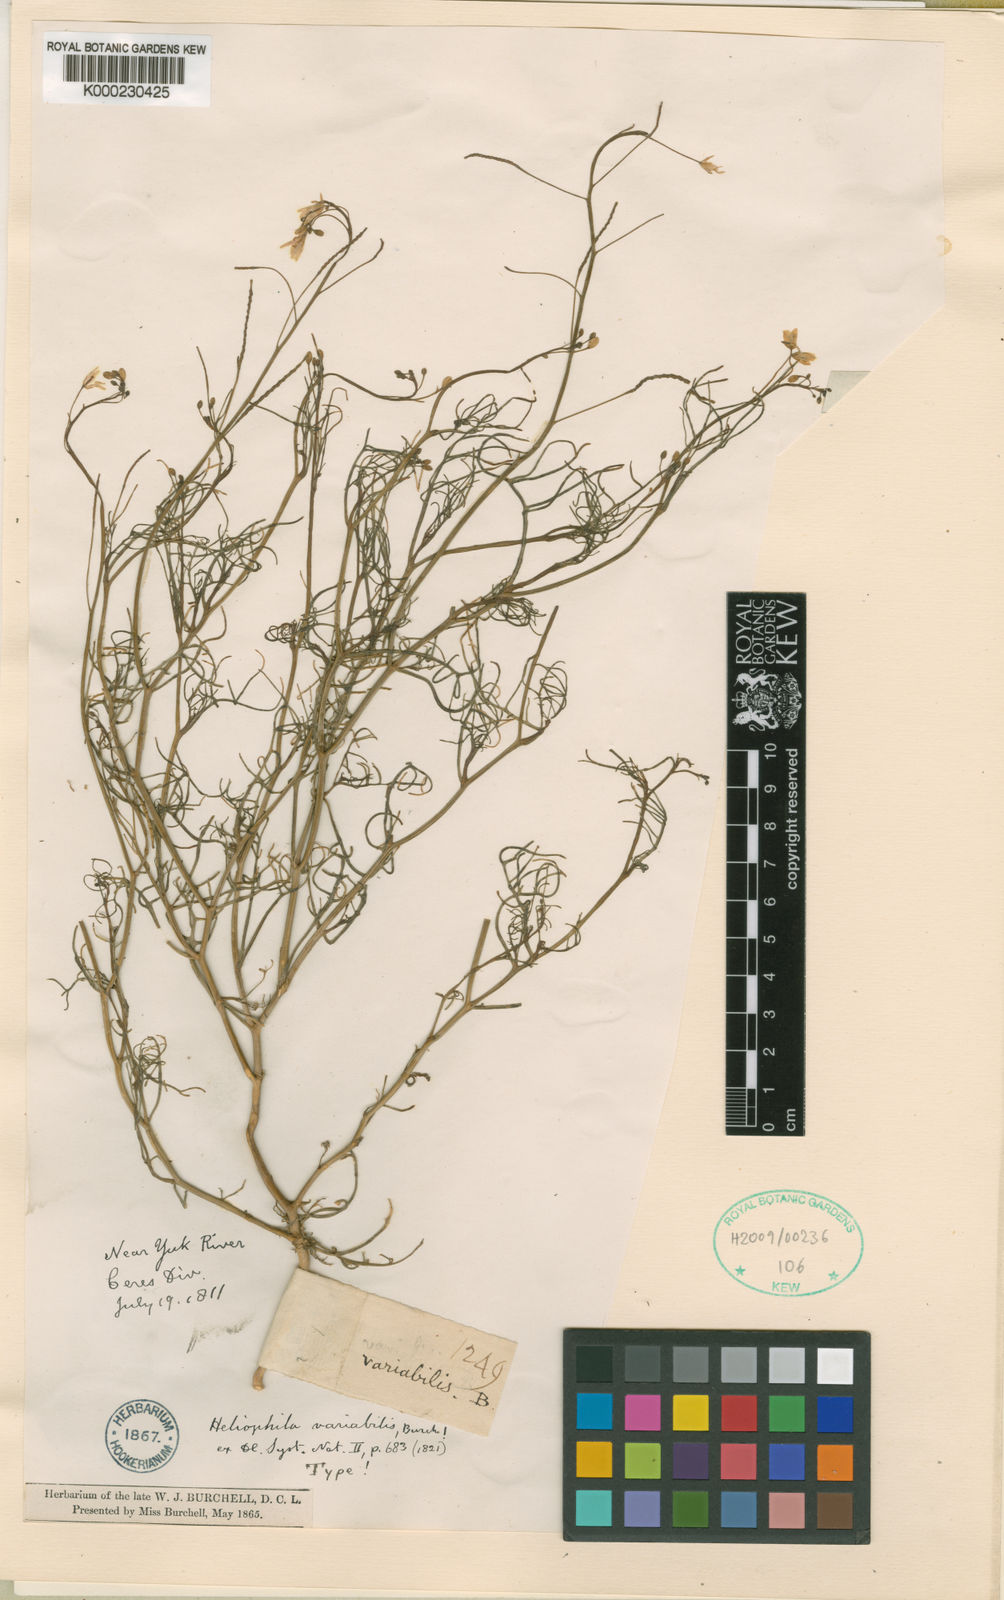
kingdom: Plantae
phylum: Tracheophyta
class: Magnoliopsida
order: Brassicales
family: Brassicaceae
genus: Heliophila
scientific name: Heliophila variabilis
